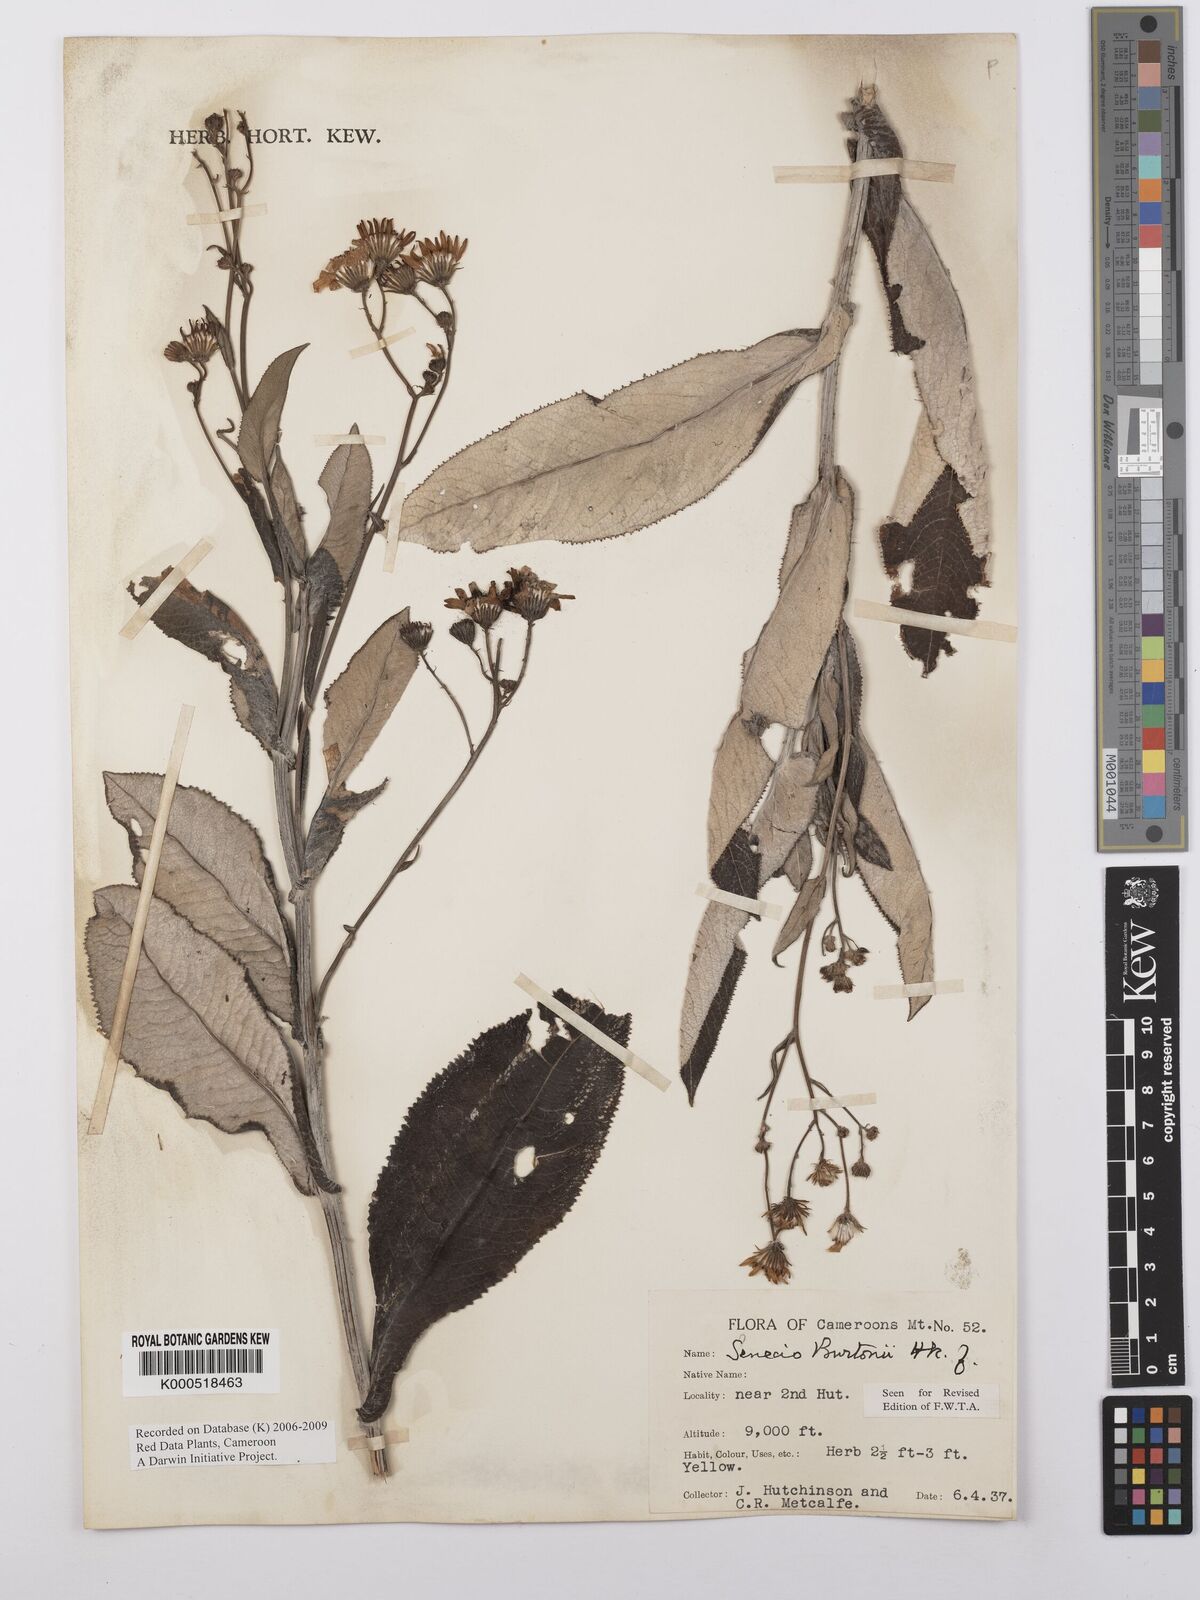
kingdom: Plantae
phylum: Tracheophyta
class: Magnoliopsida
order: Asterales
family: Asteraceae
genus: Senecio
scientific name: Senecio burtonii
